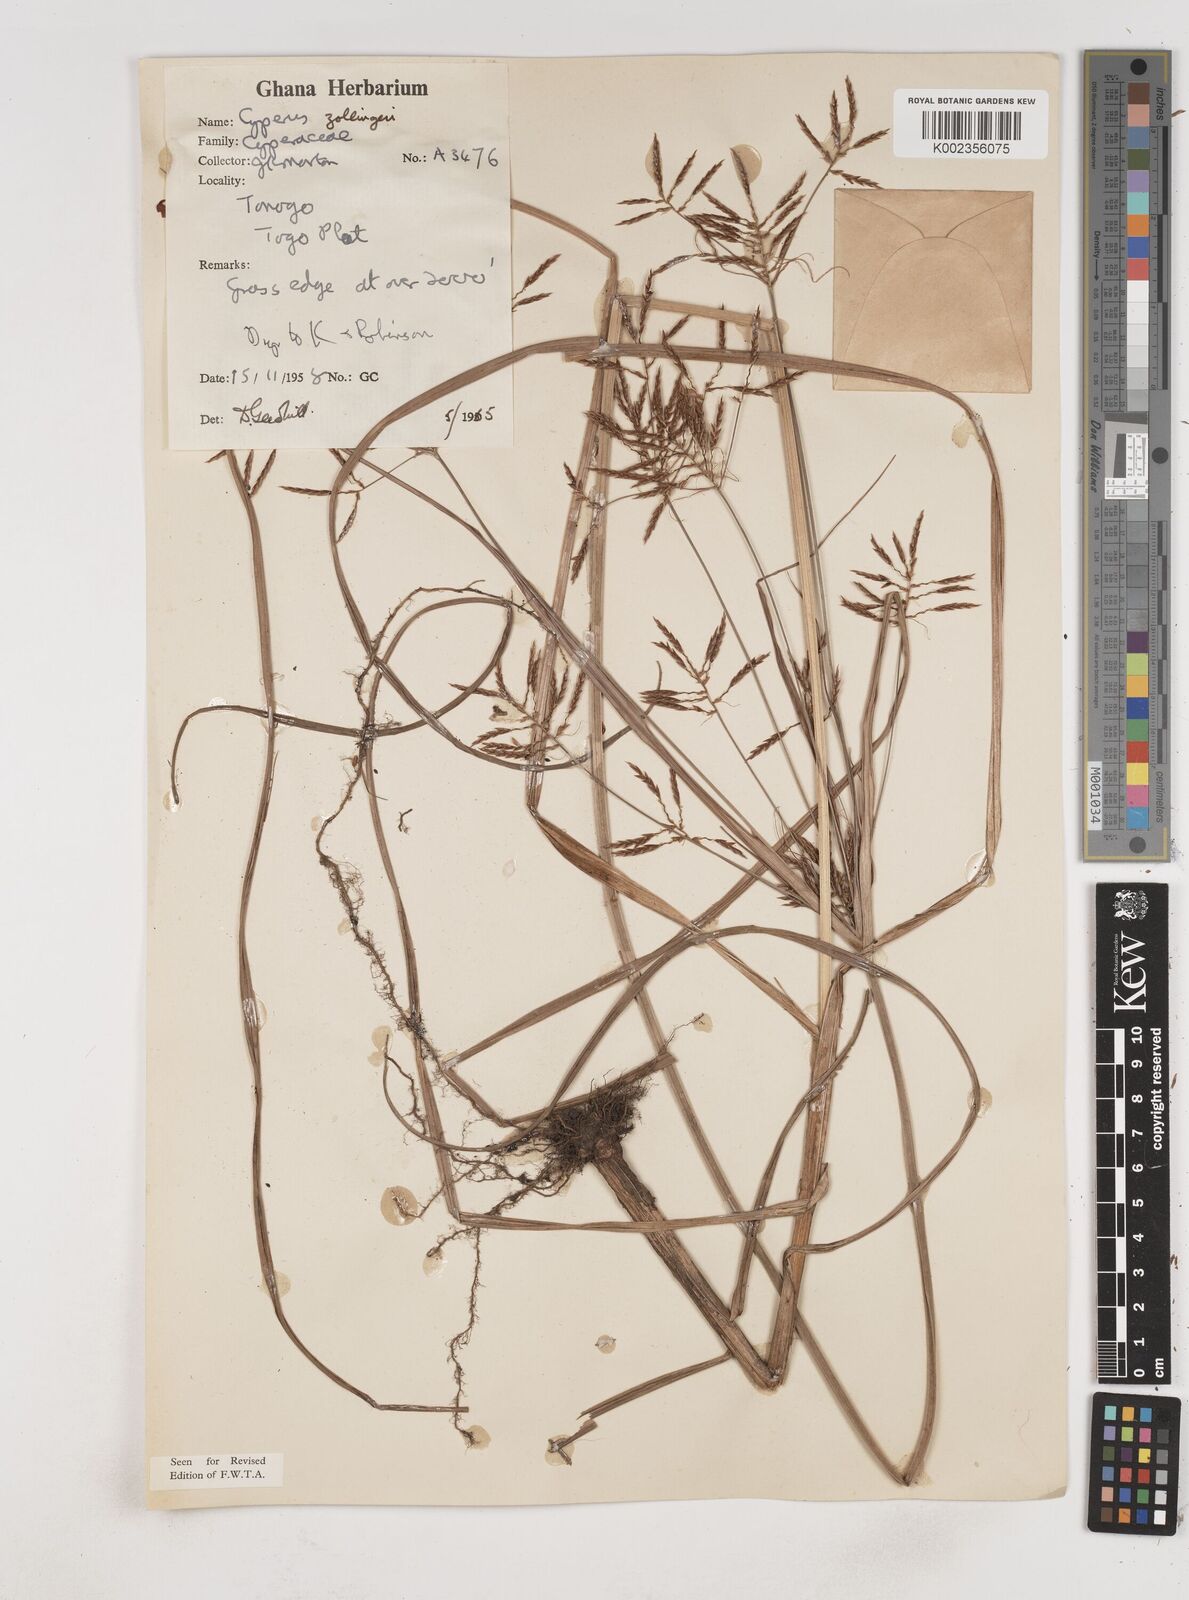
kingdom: Plantae
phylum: Tracheophyta
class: Liliopsida
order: Poales
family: Cyperaceae
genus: Cyperus
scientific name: Cyperus tenuiculmis
